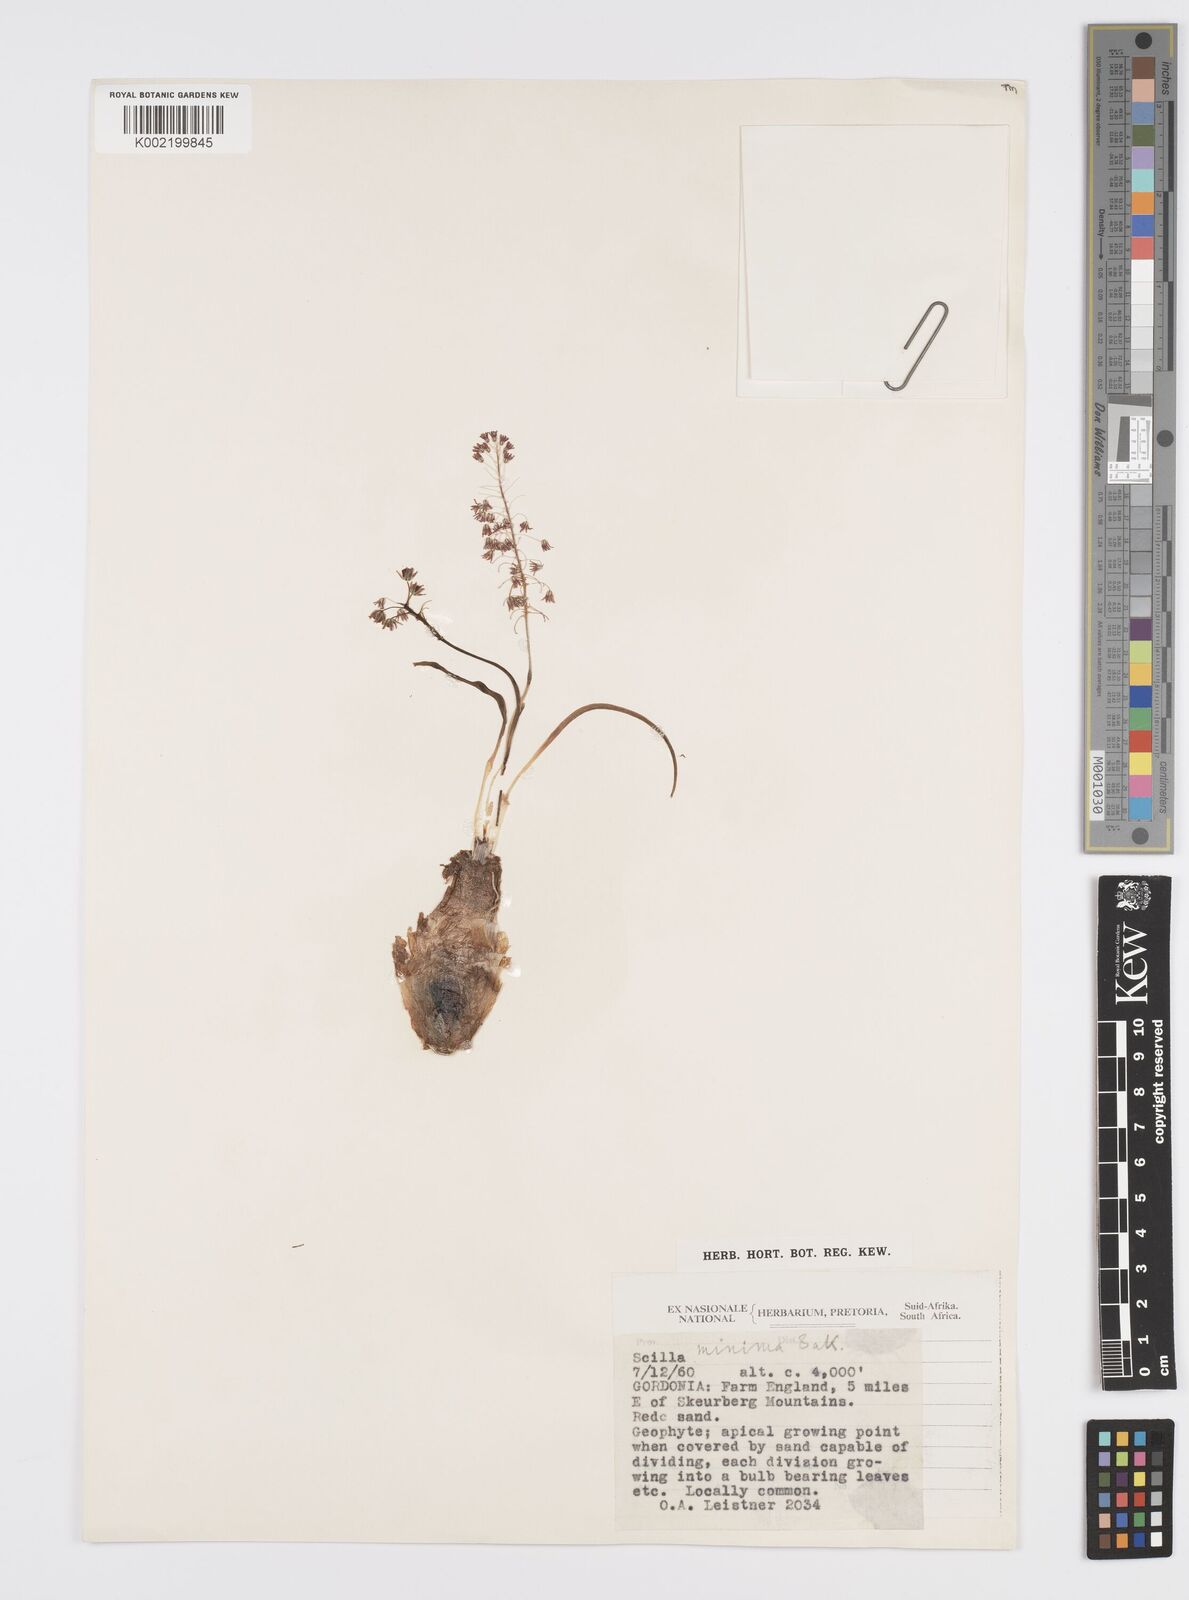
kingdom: Plantae
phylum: Tracheophyta
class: Liliopsida
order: Asparagales
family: Asparagaceae
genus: Ledebouria
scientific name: Ledebouria cooperi
